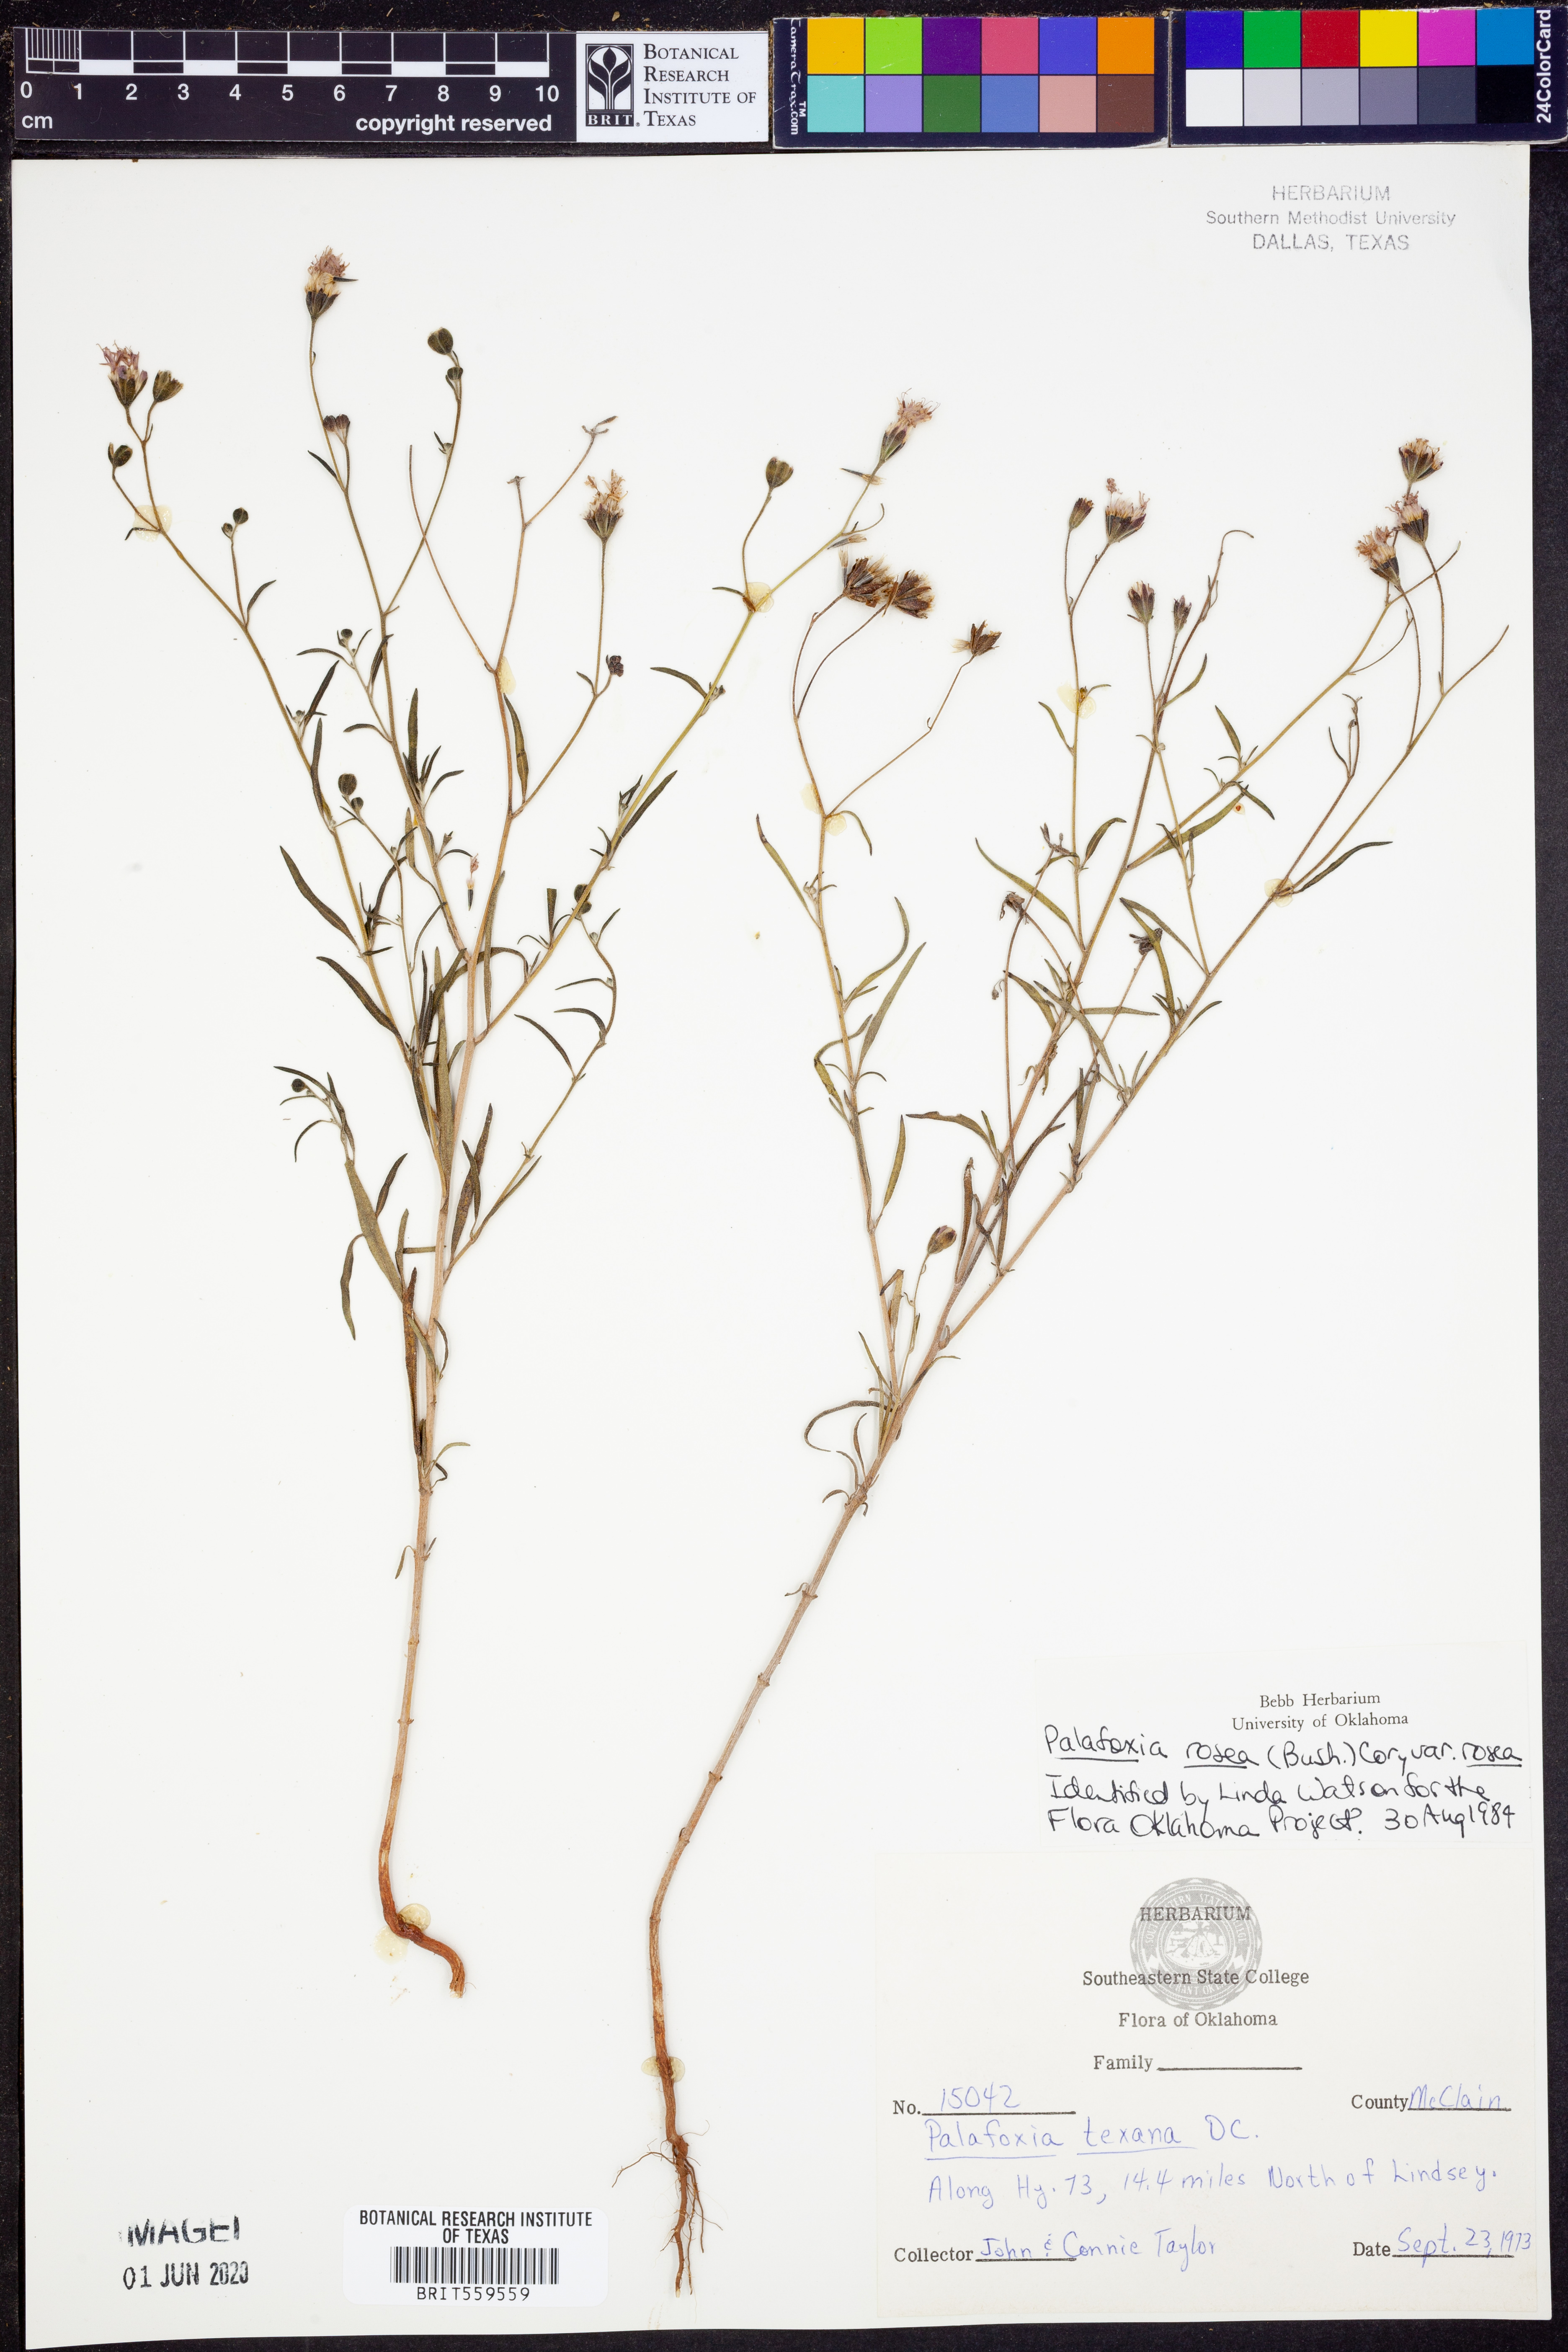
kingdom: Plantae
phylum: Tracheophyta
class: Magnoliopsida
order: Asterales
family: Asteraceae
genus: Palafoxia
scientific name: Palafoxia rosea
